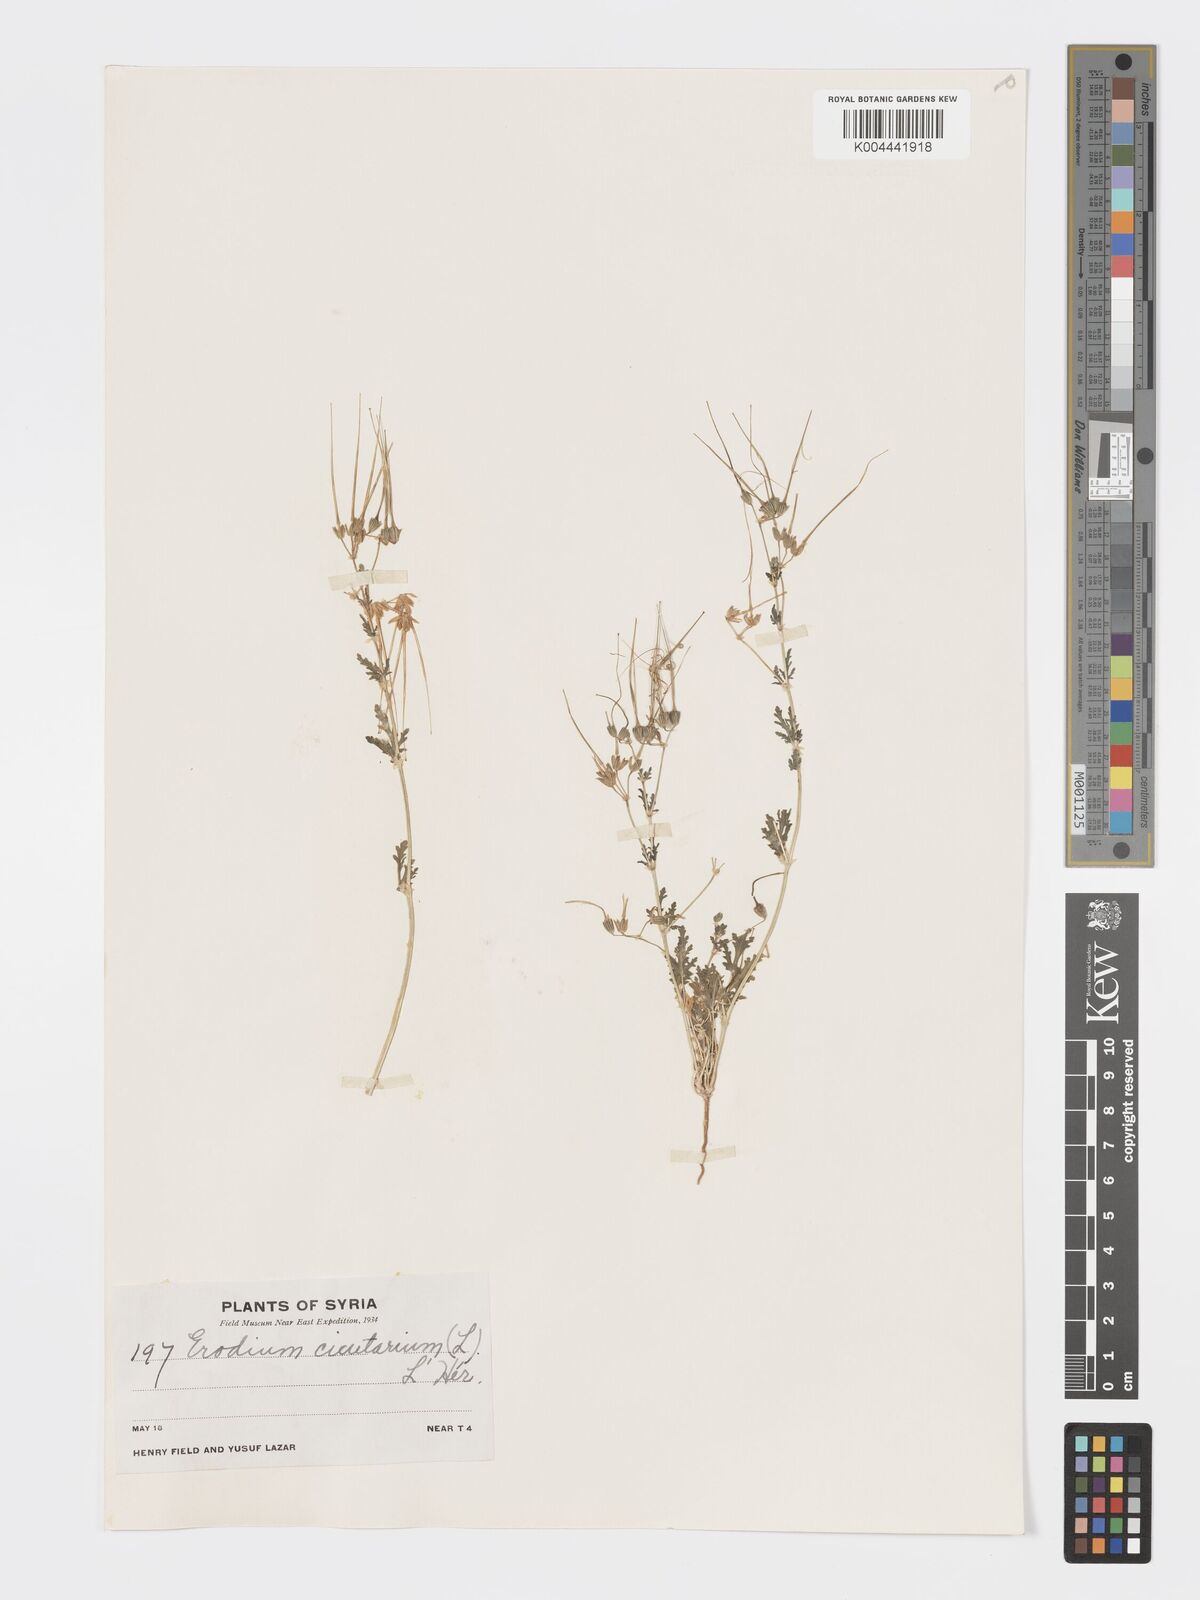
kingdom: Plantae
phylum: Tracheophyta
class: Magnoliopsida
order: Geraniales
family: Geraniaceae
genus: Erodium
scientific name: Erodium laciniatum
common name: Cutleaf stork's bill
